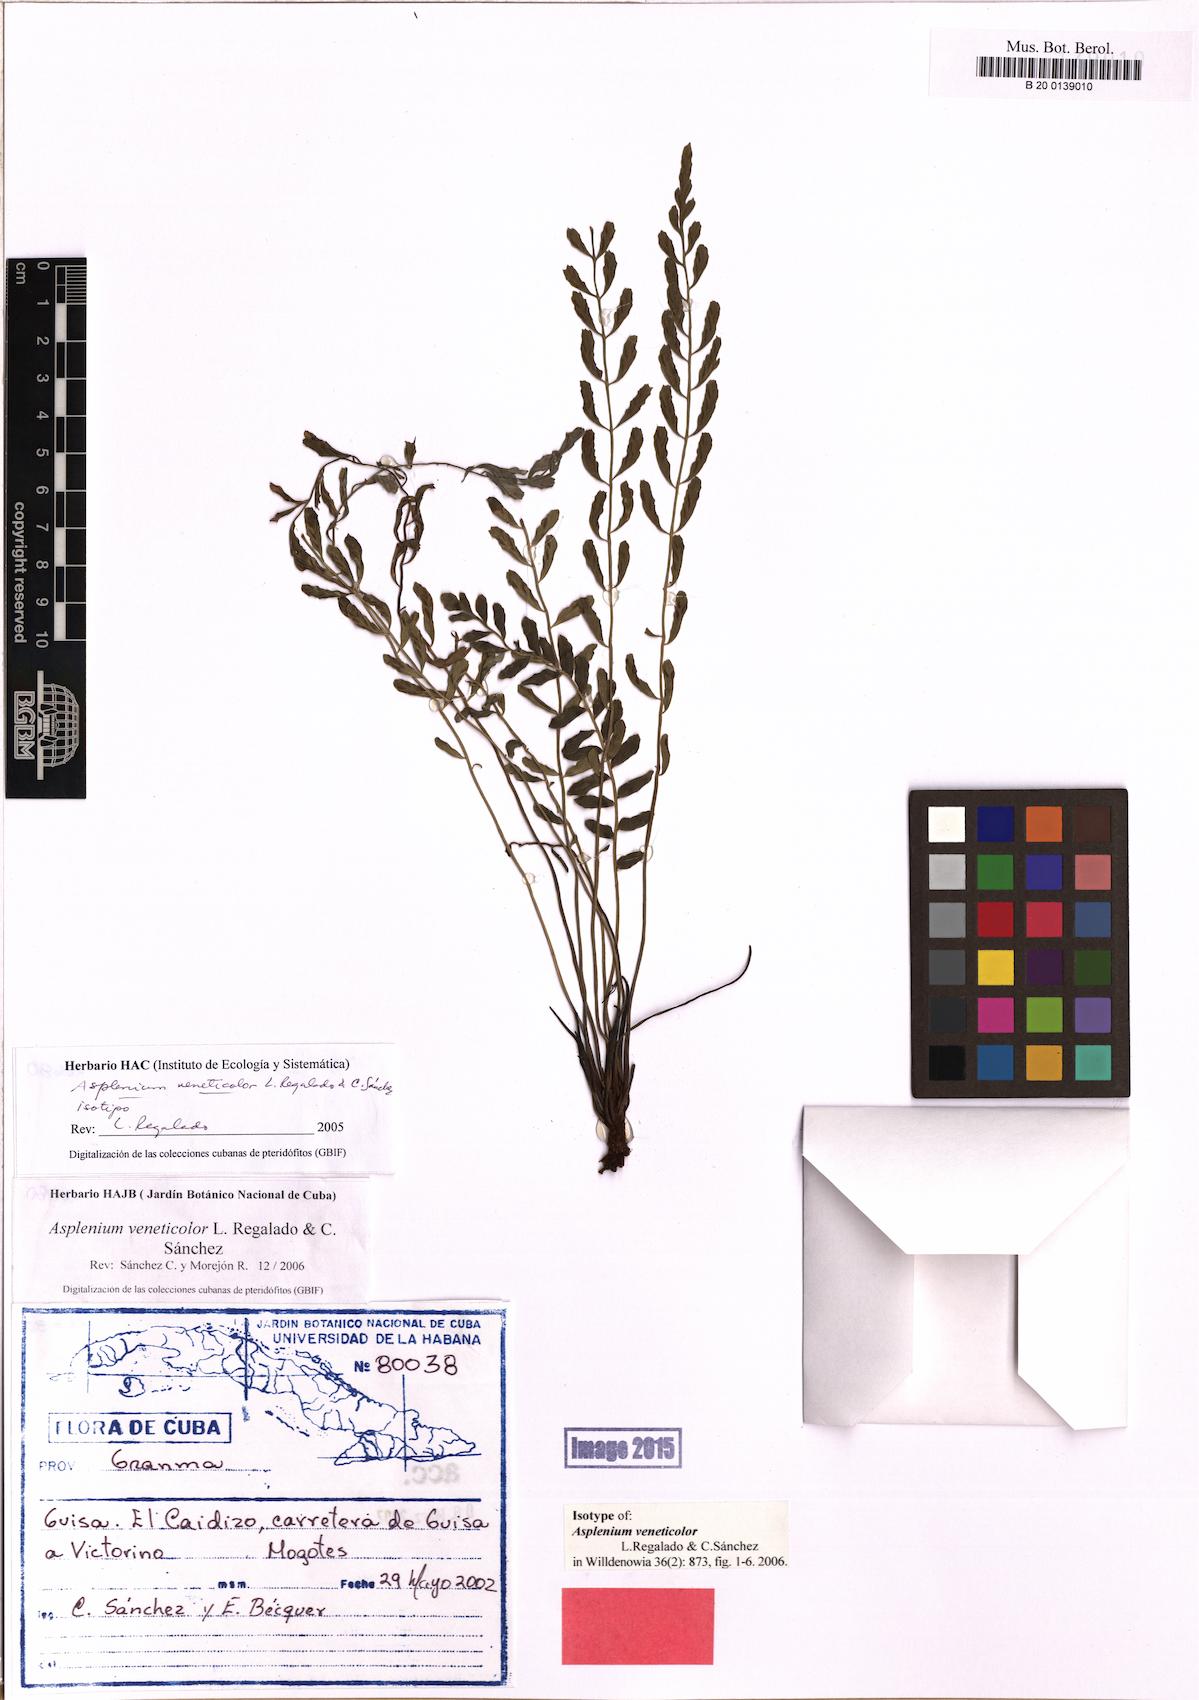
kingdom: Plantae
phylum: Tracheophyta
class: Polypodiopsida
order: Polypodiales
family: Aspleniaceae
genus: Asplenium
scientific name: Asplenium veneticolor
